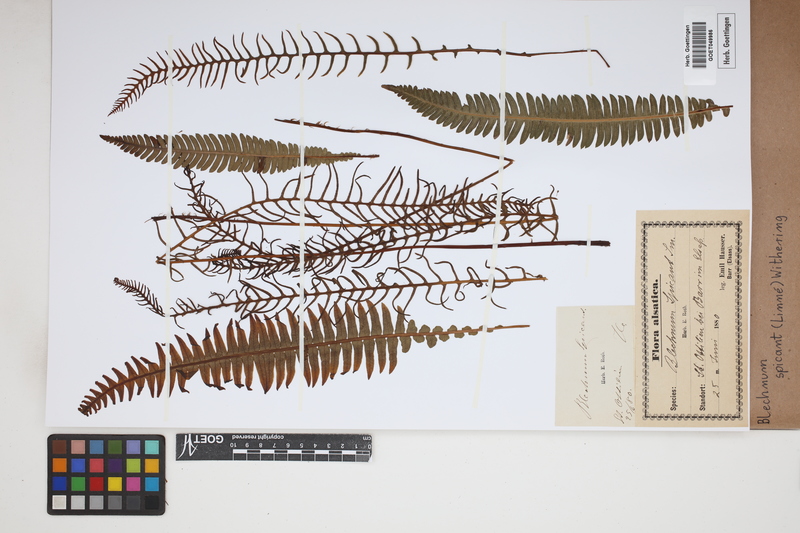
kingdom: Plantae
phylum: Tracheophyta
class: Polypodiopsida
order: Polypodiales
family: Blechnaceae
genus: Struthiopteris
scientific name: Struthiopteris spicant
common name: Deer fern
